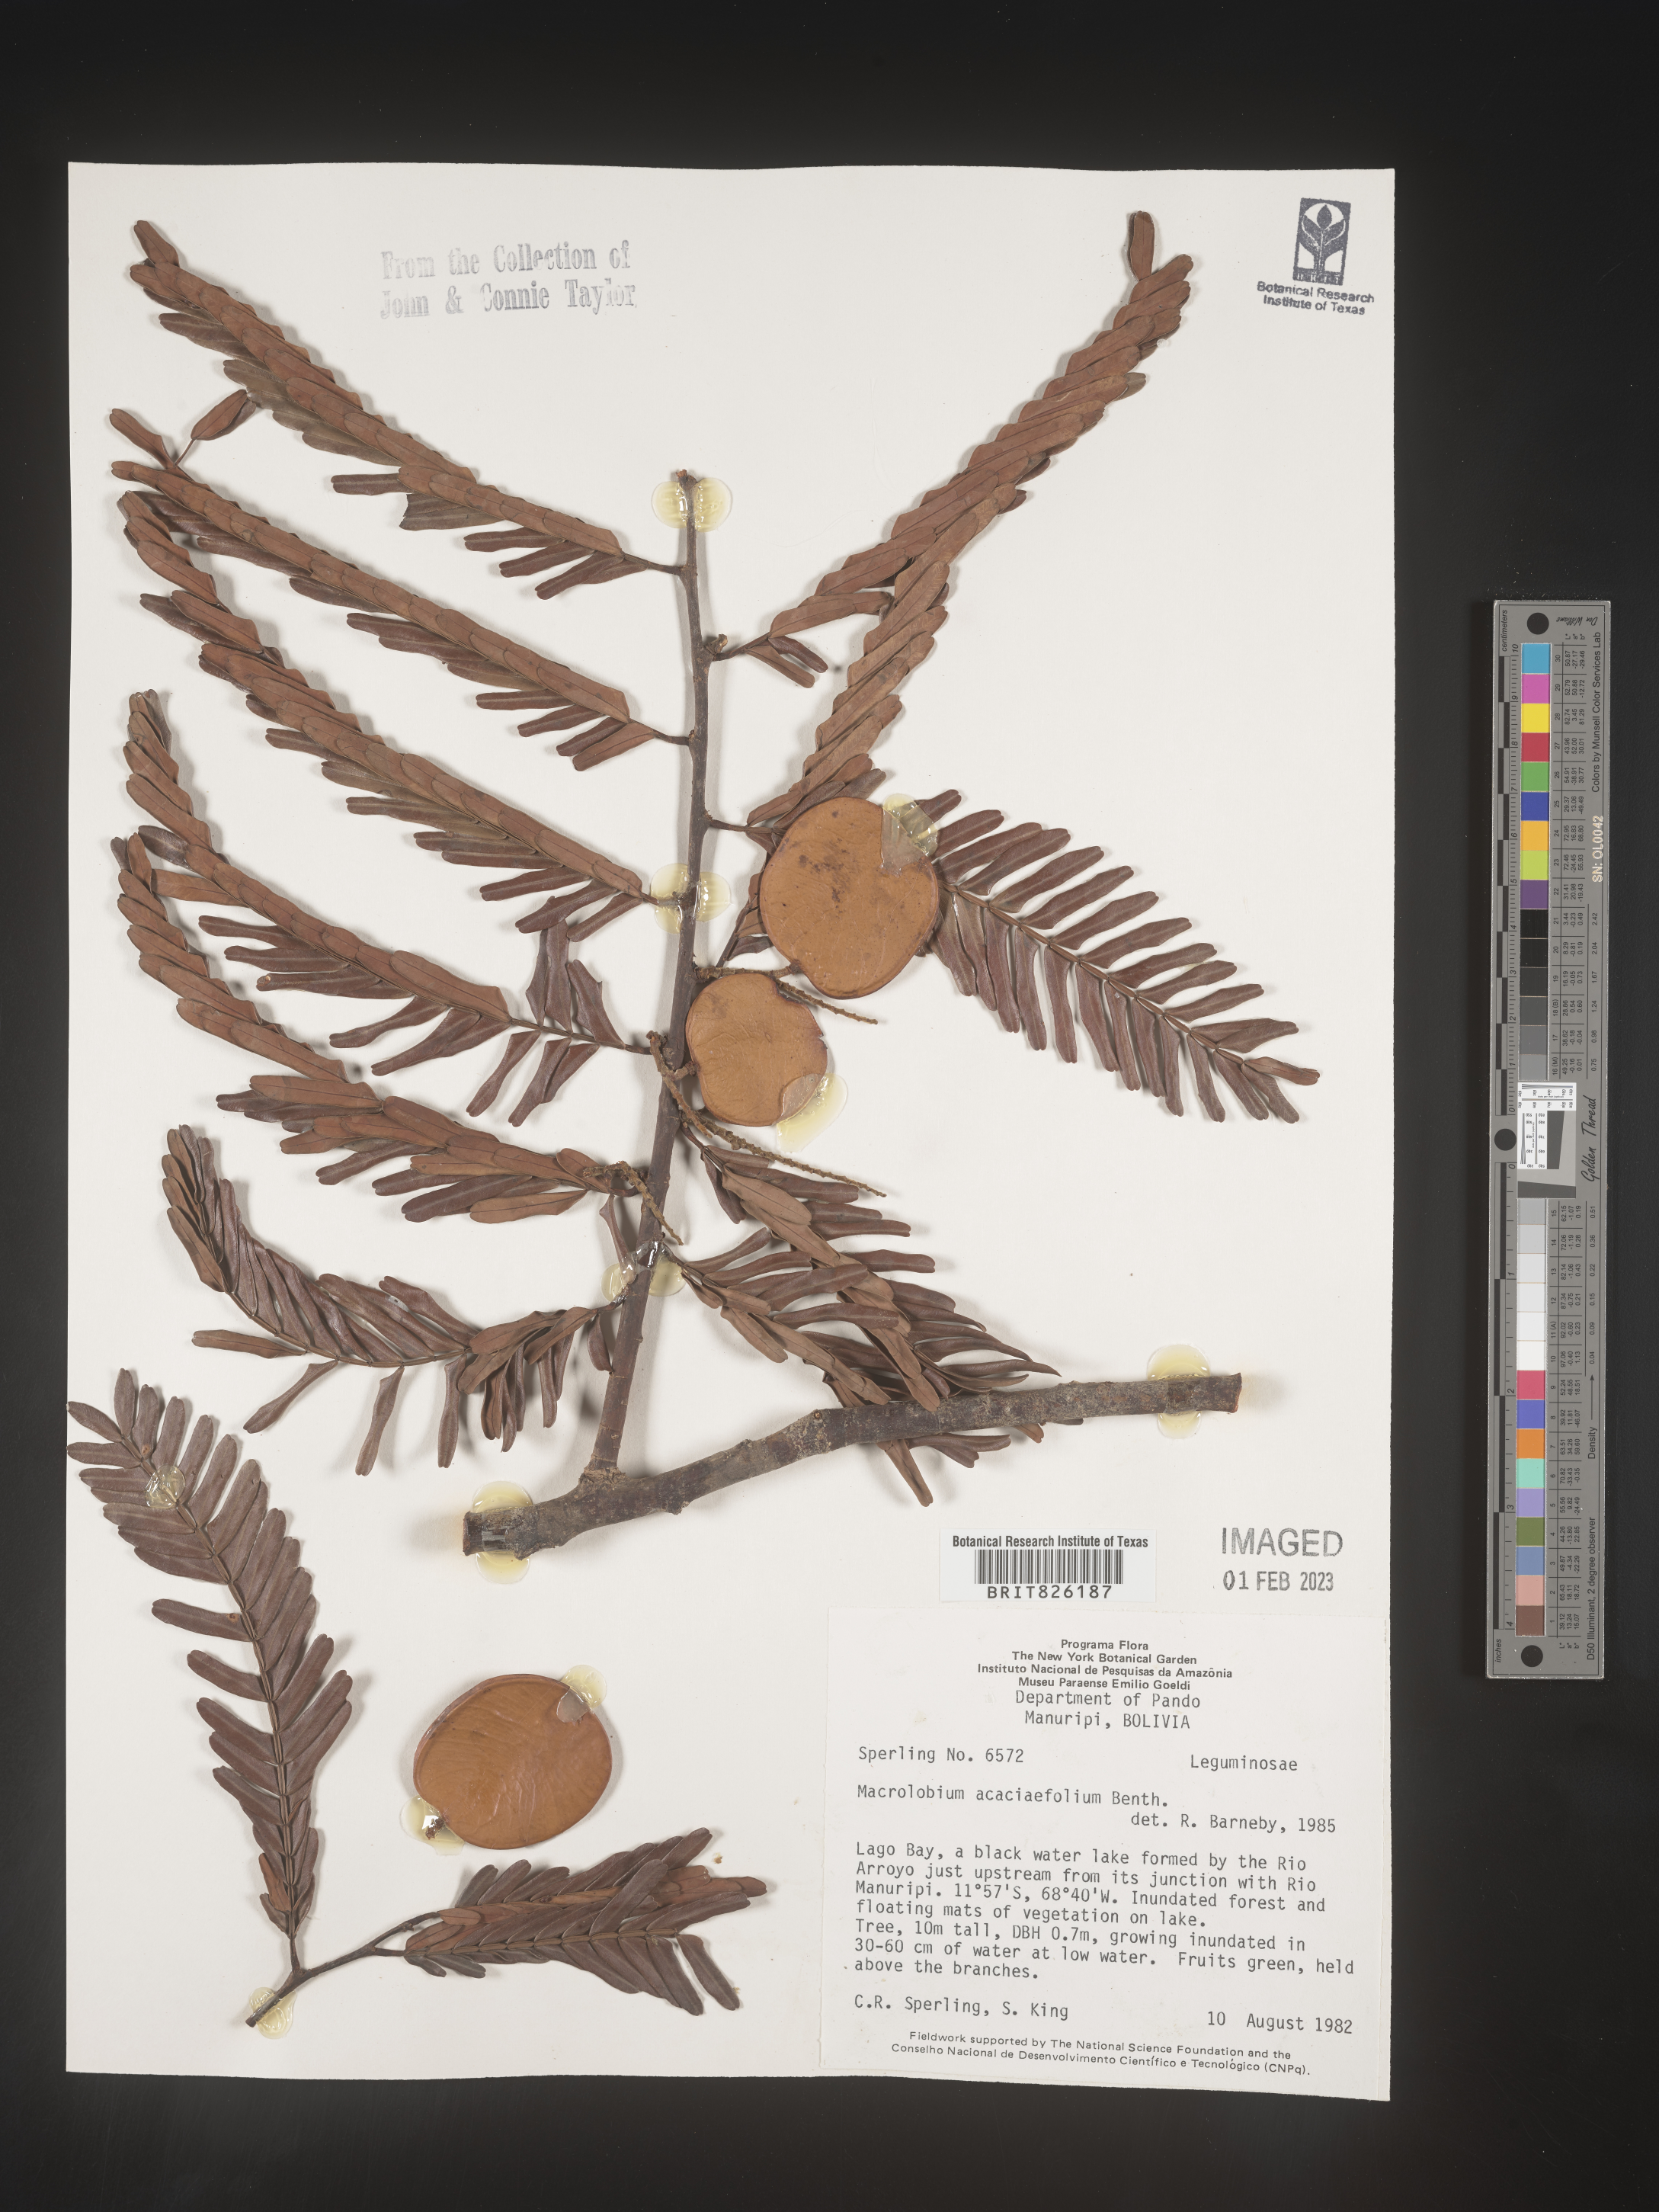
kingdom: Plantae
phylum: Tracheophyta
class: Magnoliopsida
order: Fabales
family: Fabaceae
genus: Macrolobium
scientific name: Macrolobium
